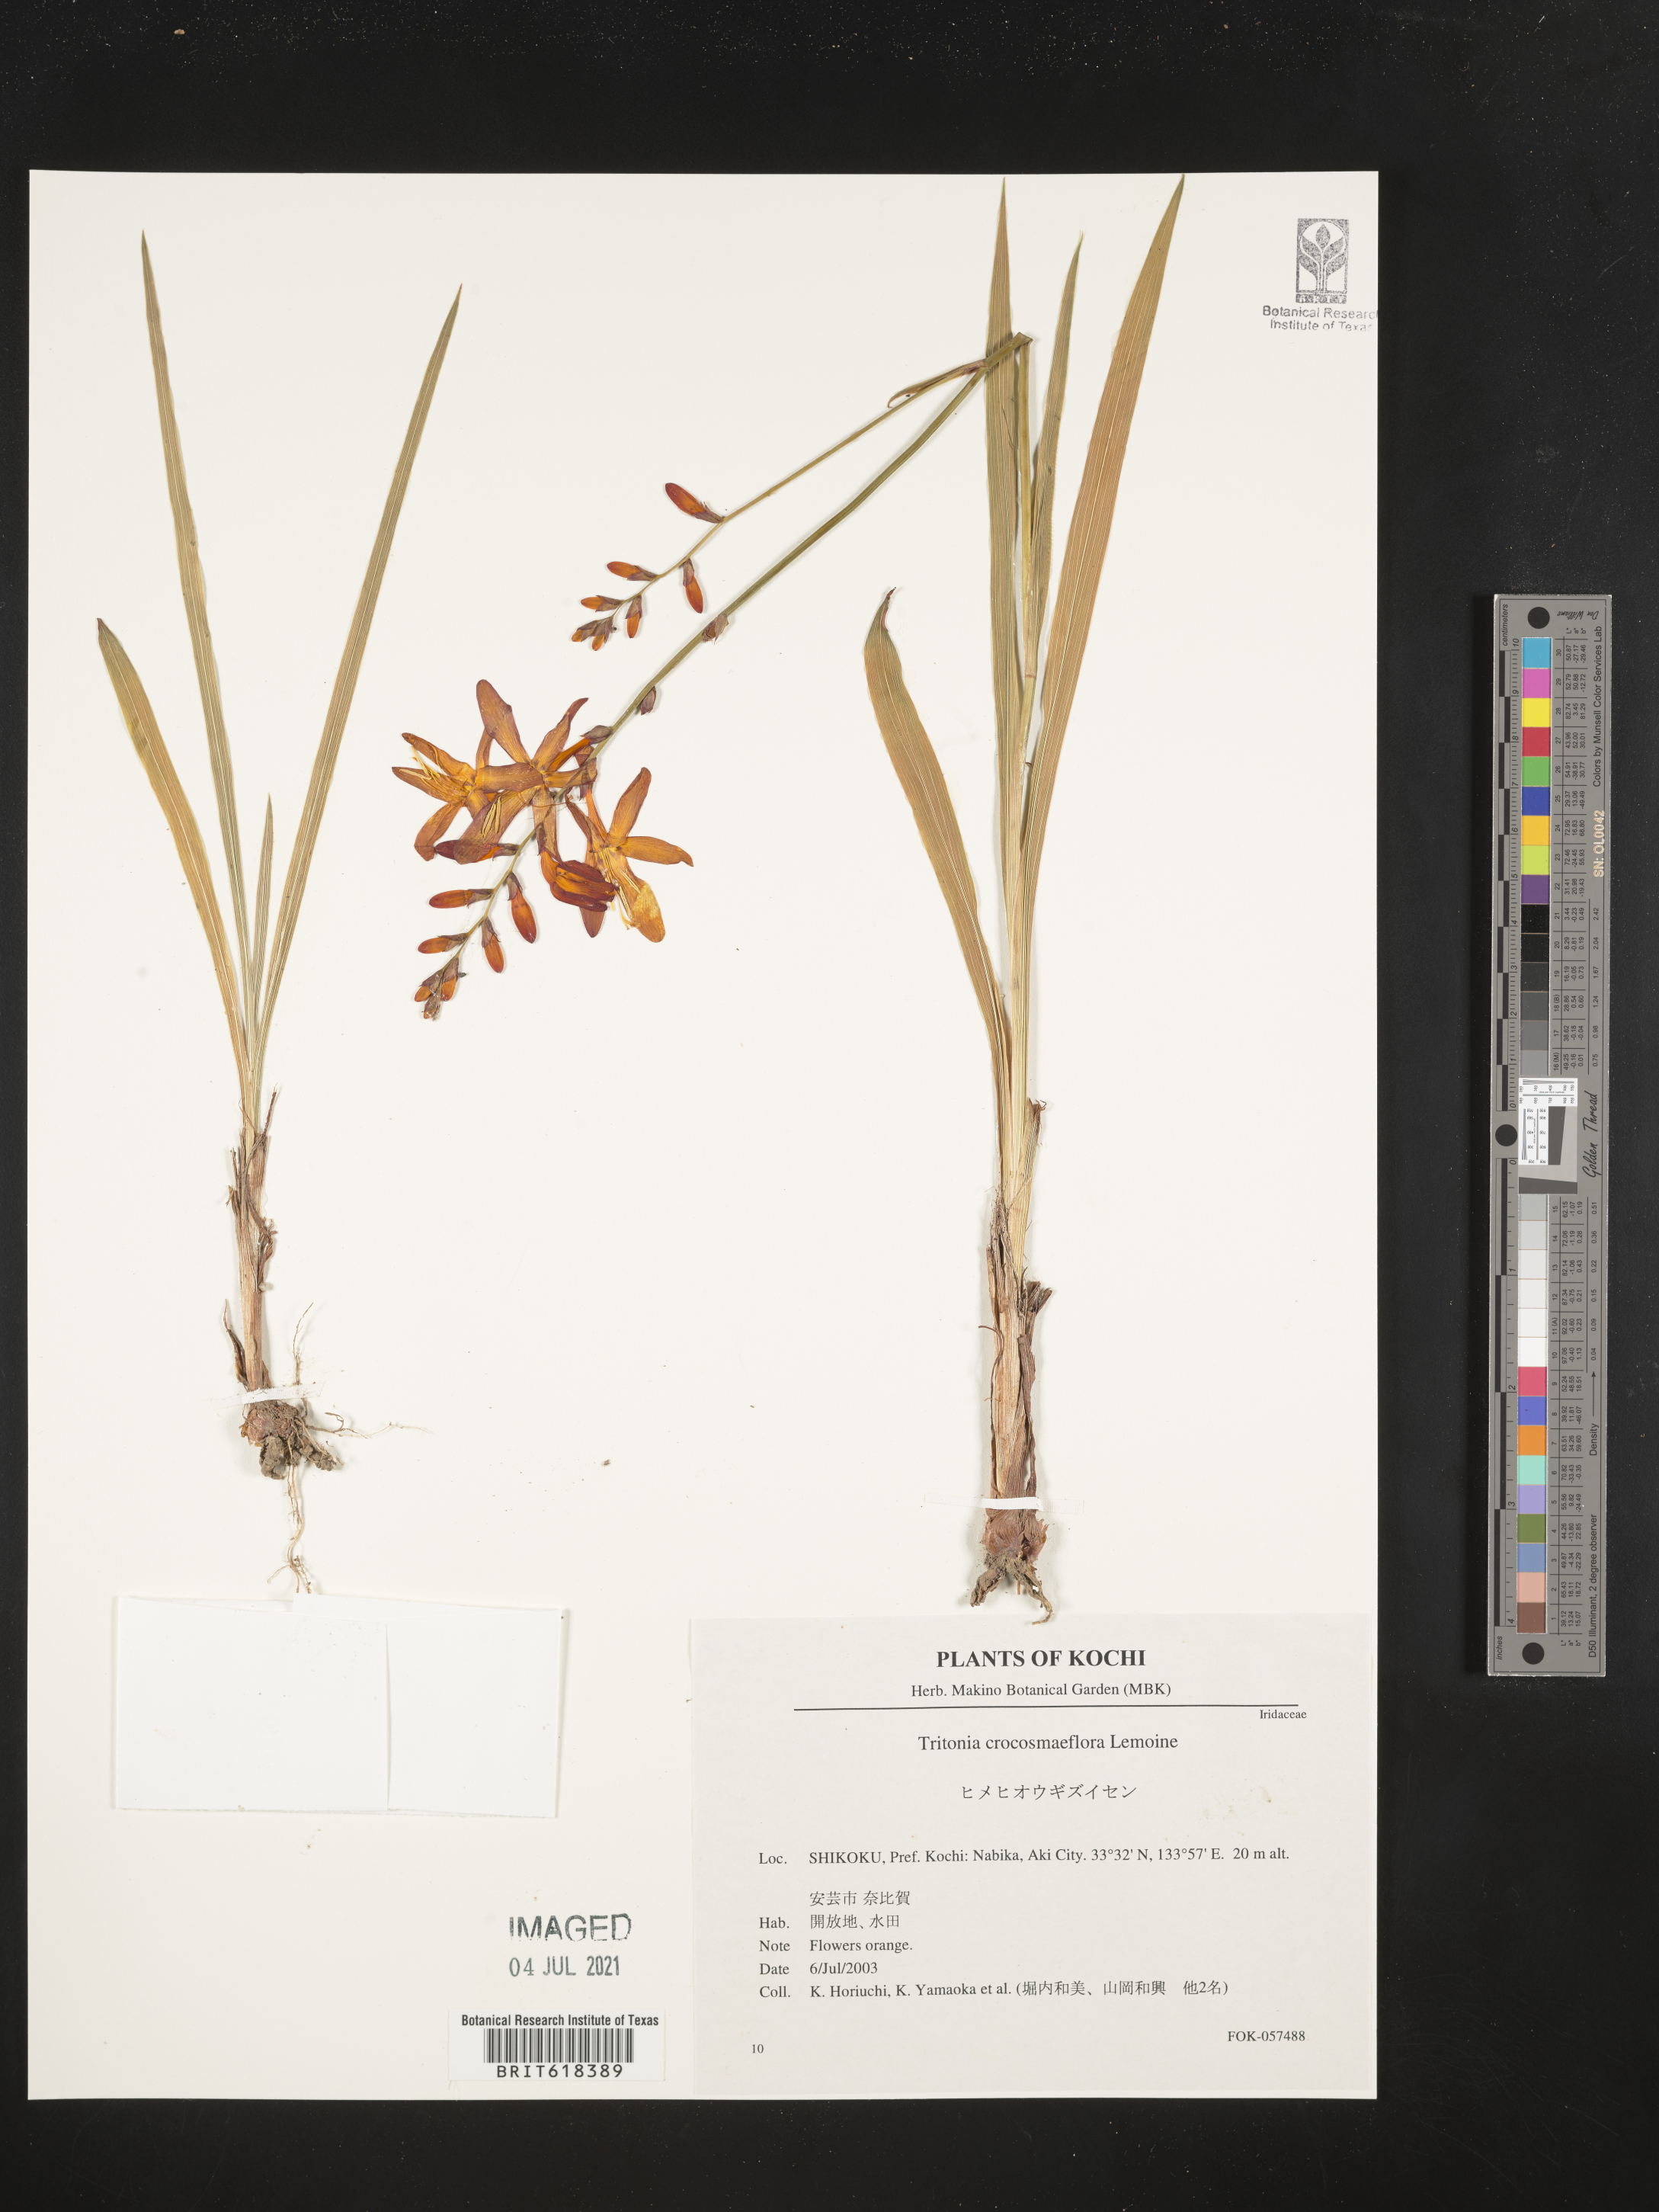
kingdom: Plantae
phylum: Tracheophyta
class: Liliopsida
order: Asparagales
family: Iridaceae
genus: Crocosmia
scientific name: Crocosmia crocosmiiflora
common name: Montbretia
